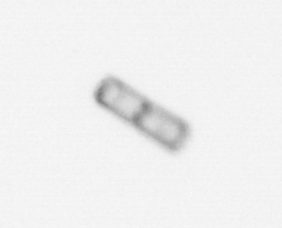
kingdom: Chromista
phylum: Ochrophyta
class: Bacillariophyceae
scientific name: Bacillariophyceae
